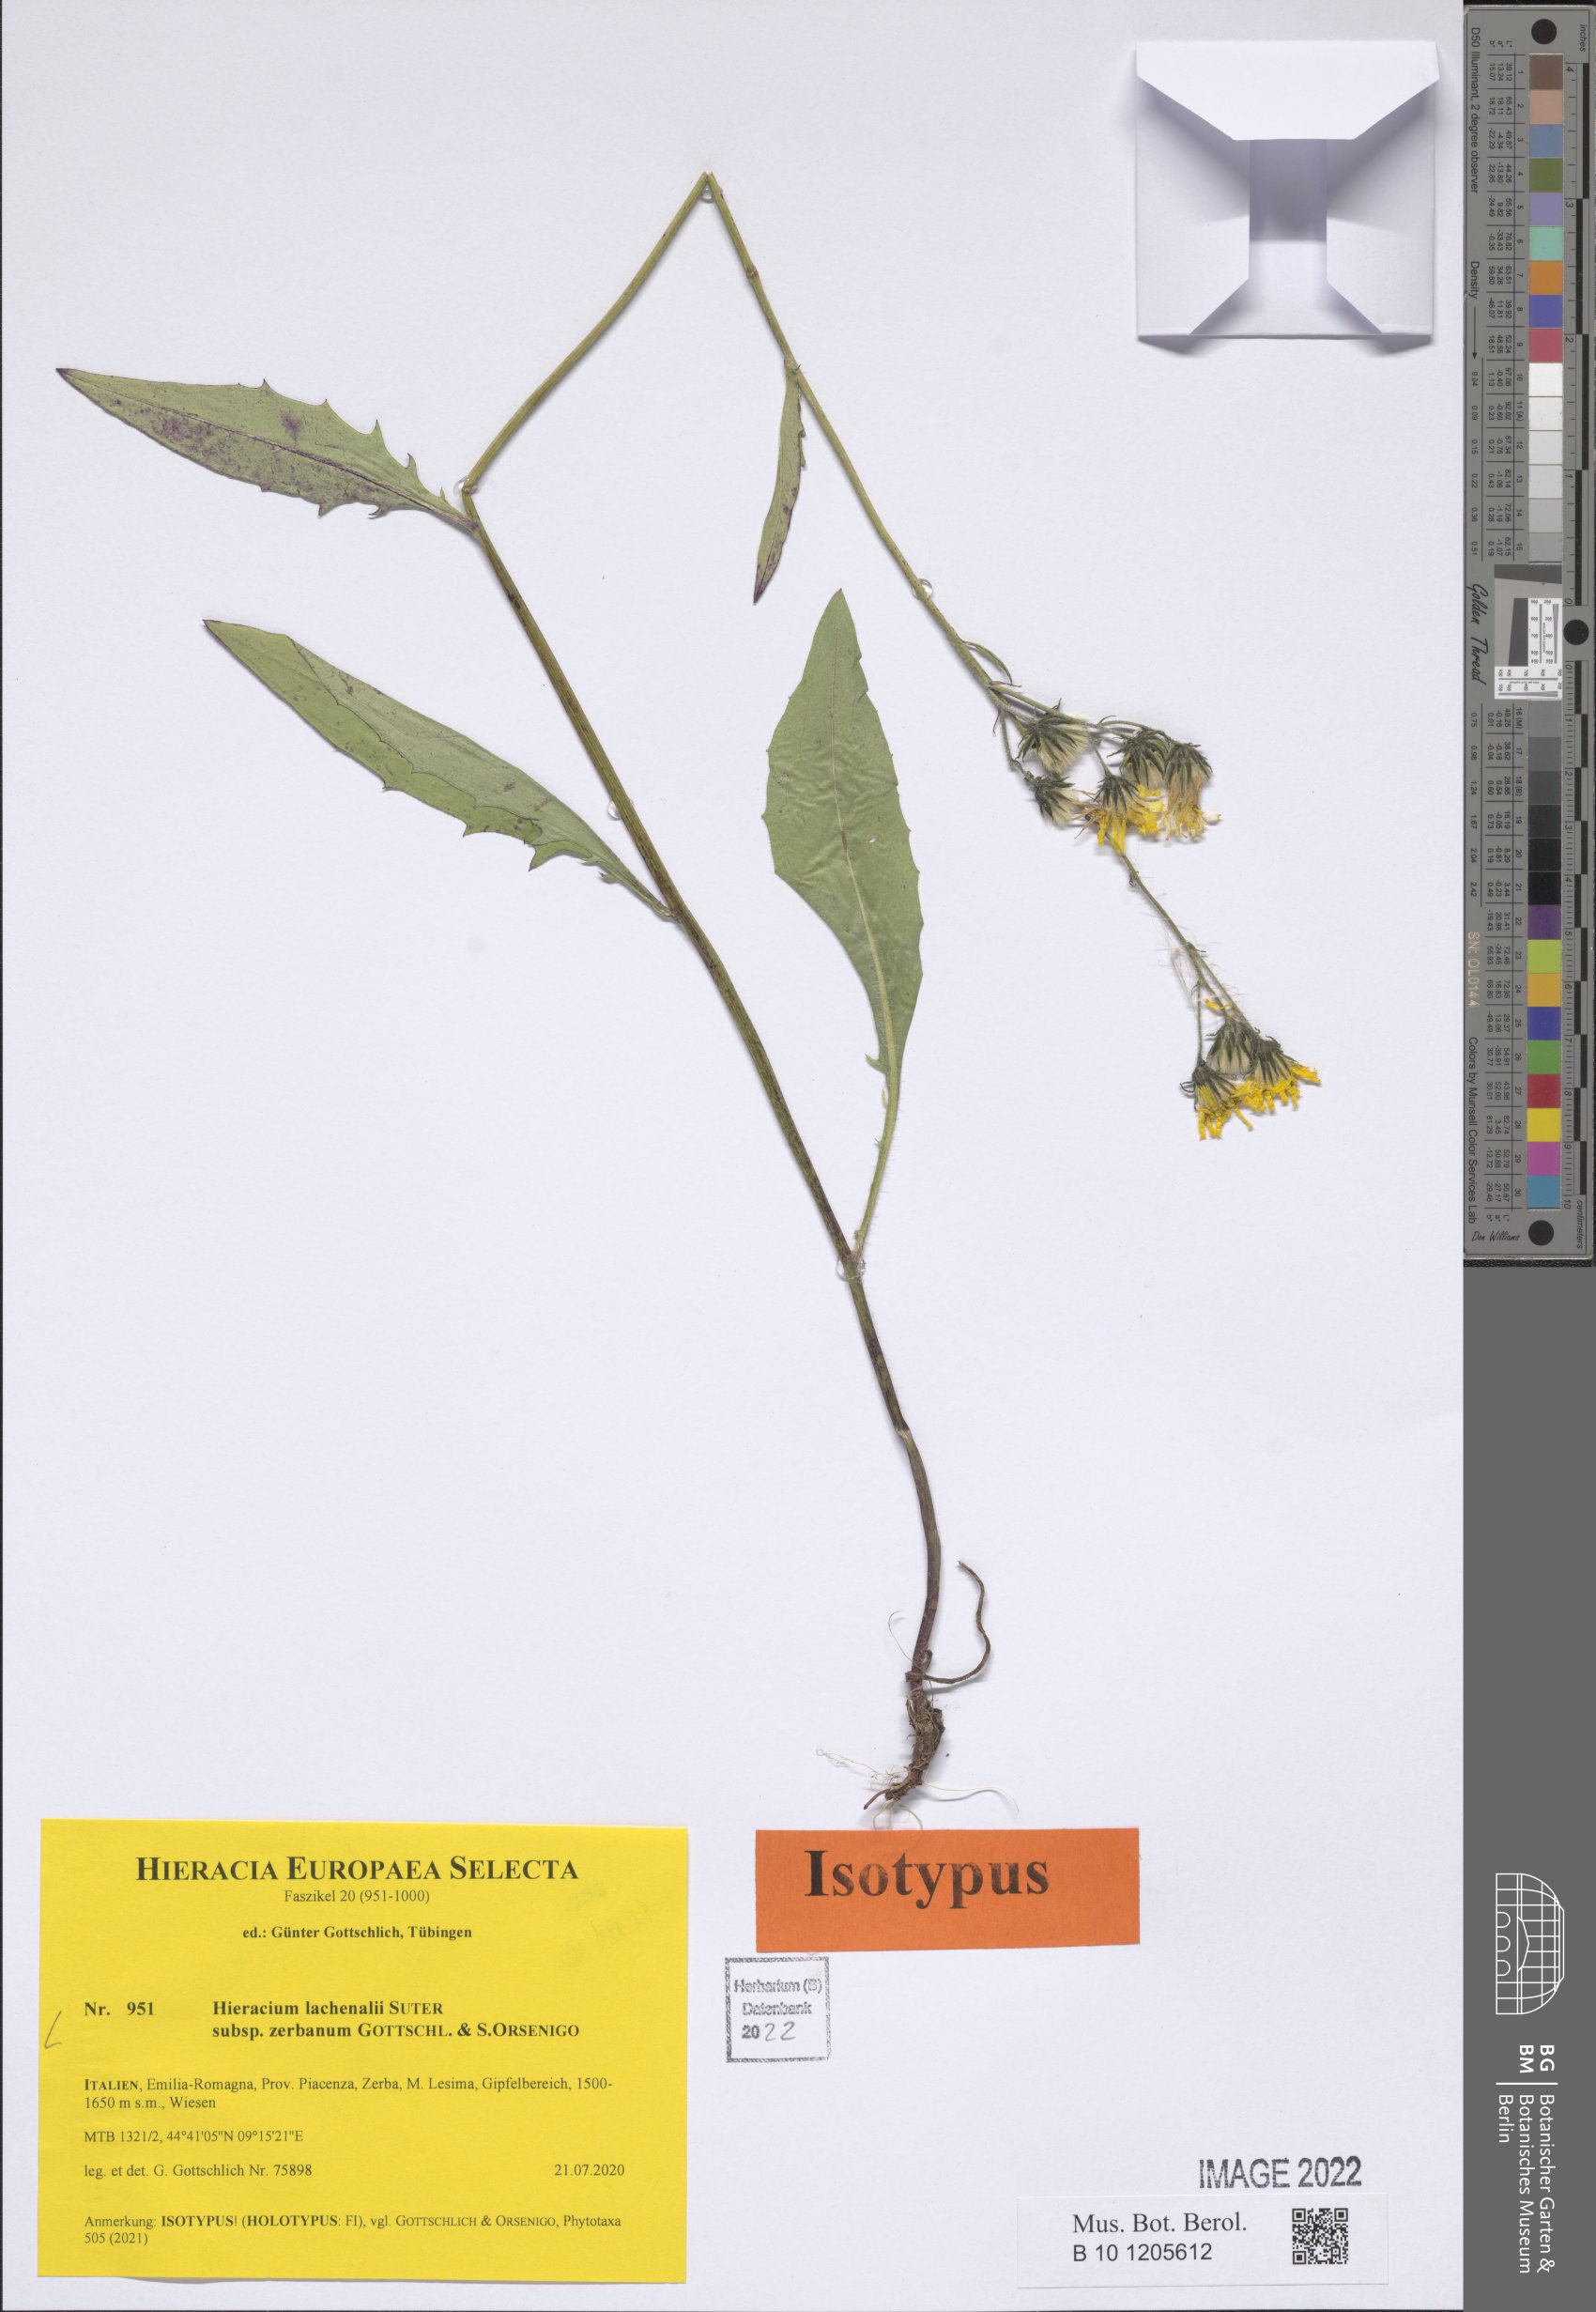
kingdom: Plantae
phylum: Tracheophyta
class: Magnoliopsida
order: Asterales
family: Asteraceae
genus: Hieracium
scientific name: Hieracium lachenalii
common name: Common hawkweed
